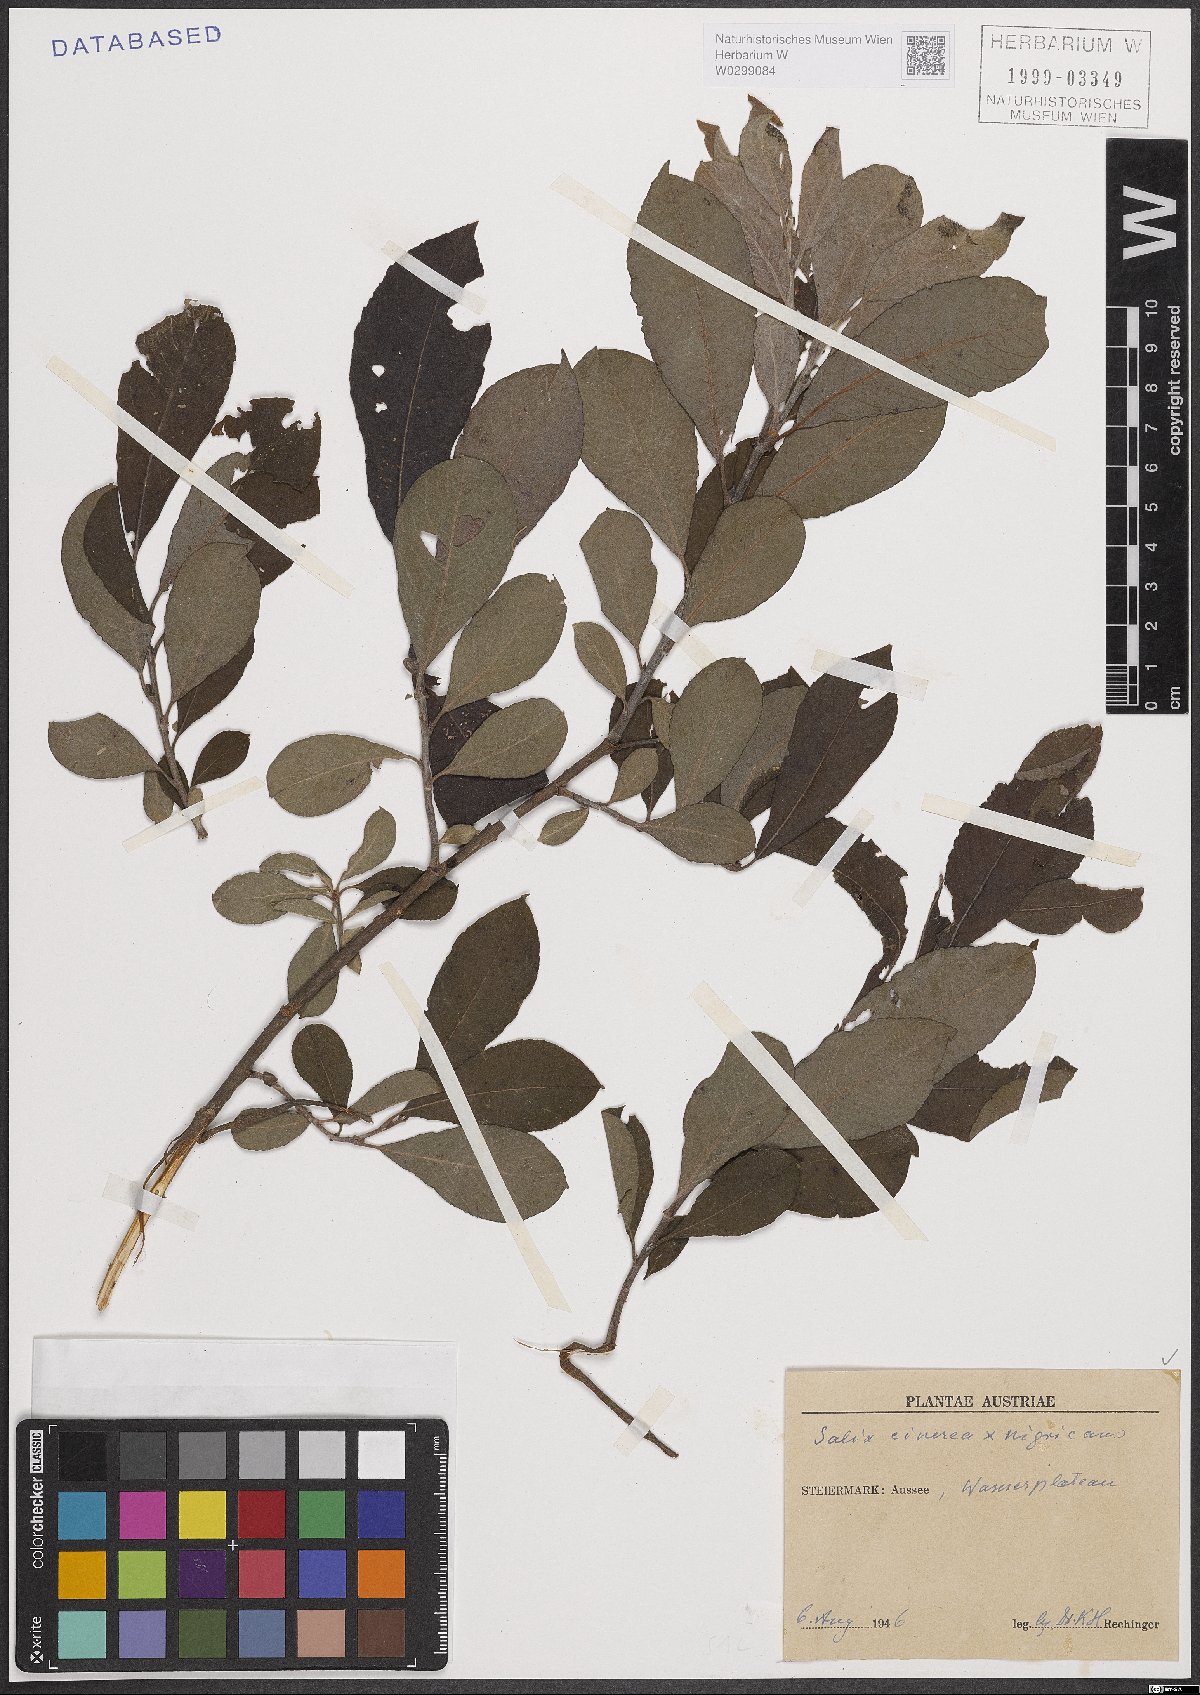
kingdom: Plantae
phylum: Tracheophyta
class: Magnoliopsida
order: Malpighiales
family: Salicaceae
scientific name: Salicaceae
